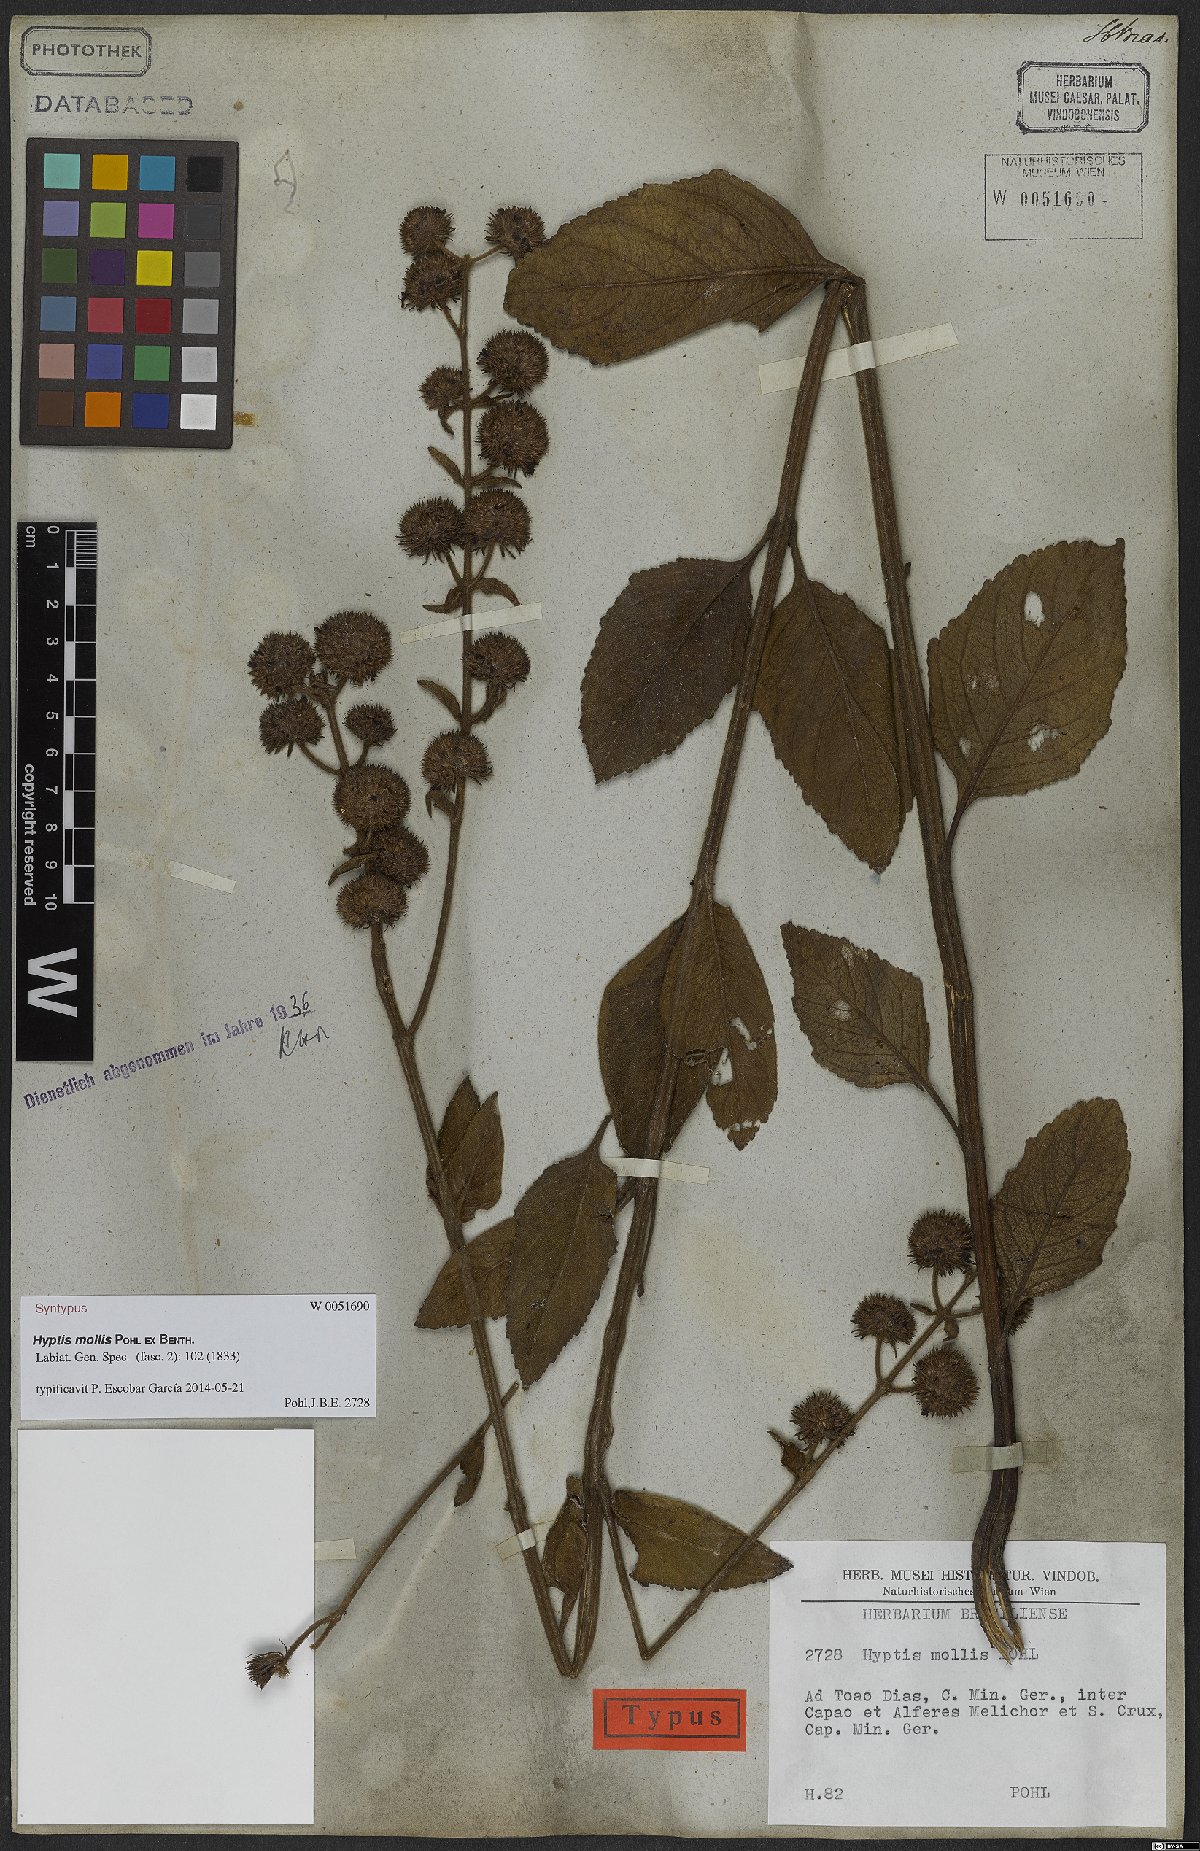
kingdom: Plantae
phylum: Tracheophyta
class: Magnoliopsida
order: Lamiales
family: Lamiaceae
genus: Hyptis
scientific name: Hyptis mollis
